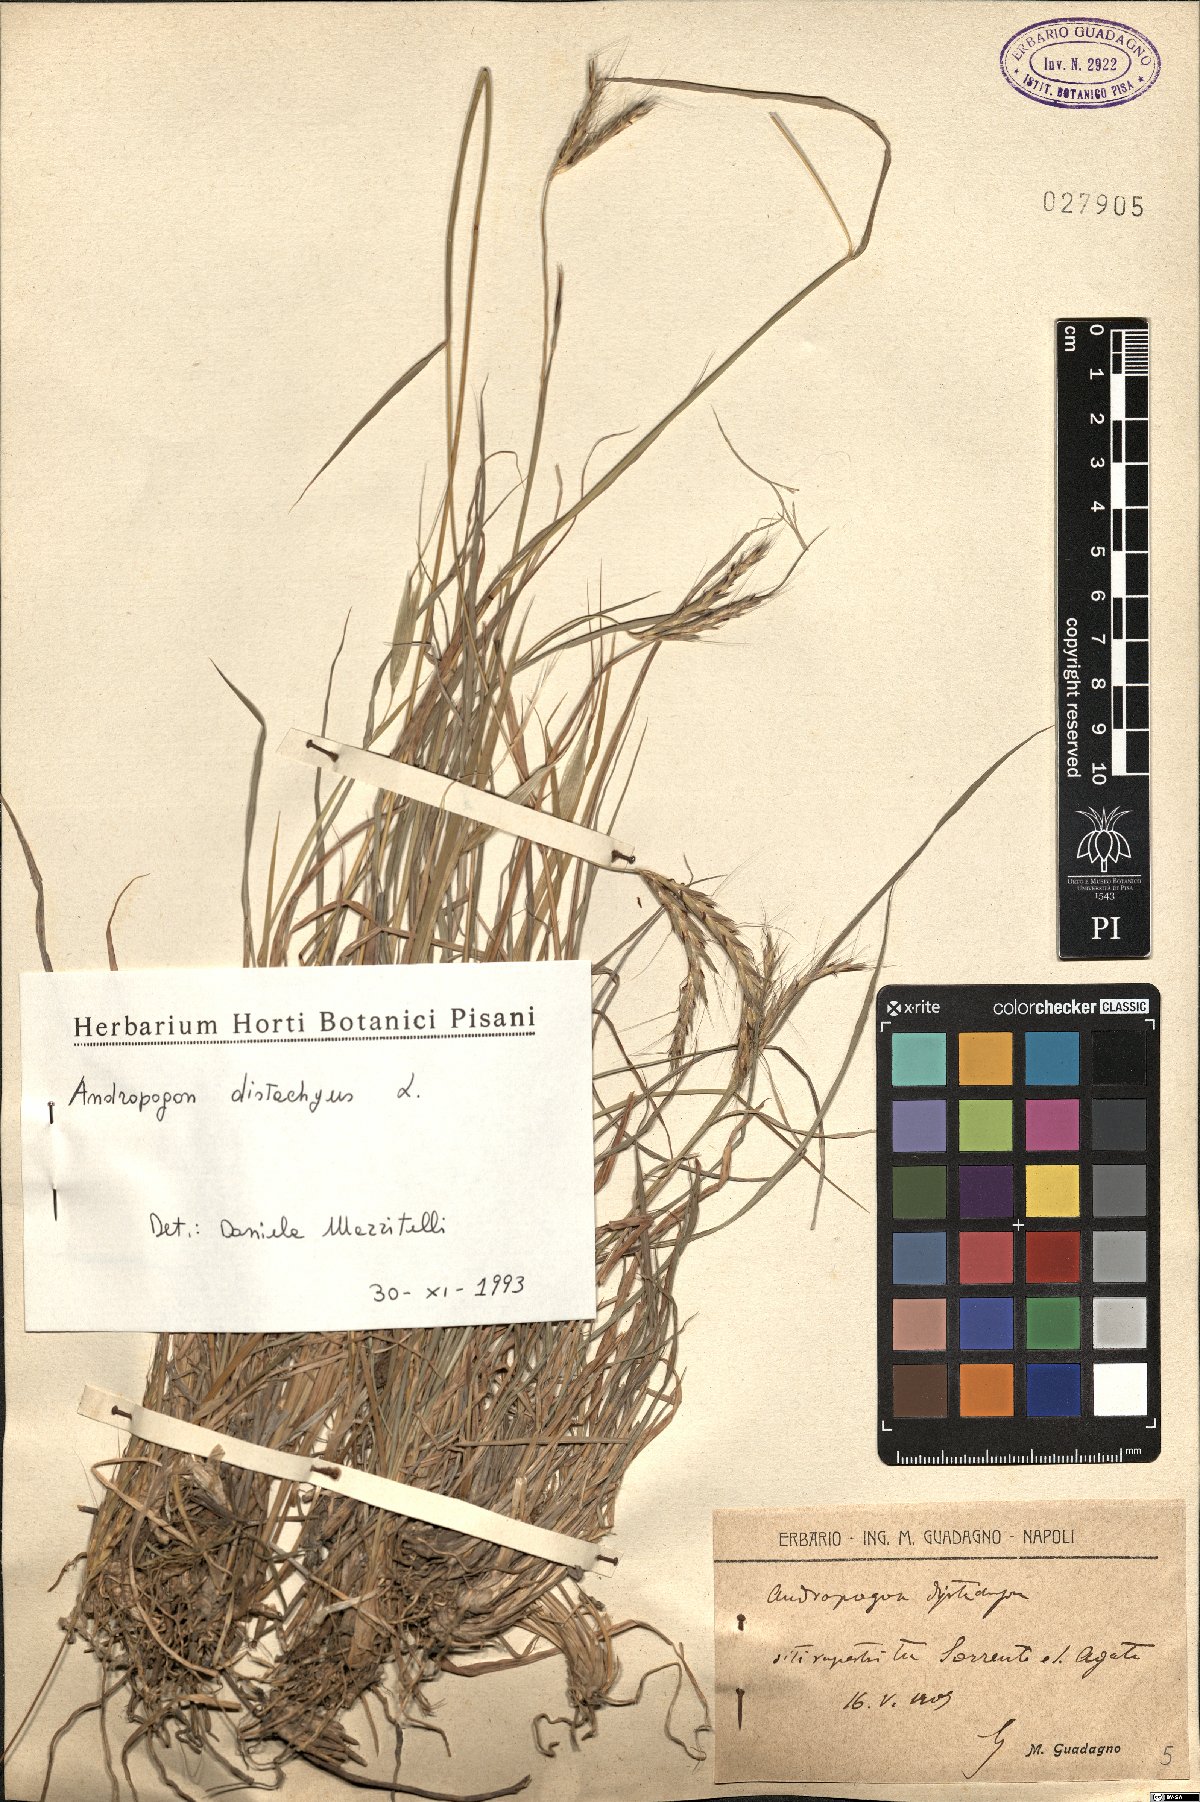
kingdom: Plantae
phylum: Tracheophyta
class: Liliopsida
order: Poales
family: Poaceae
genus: Andropogon
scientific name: Andropogon distachyos
